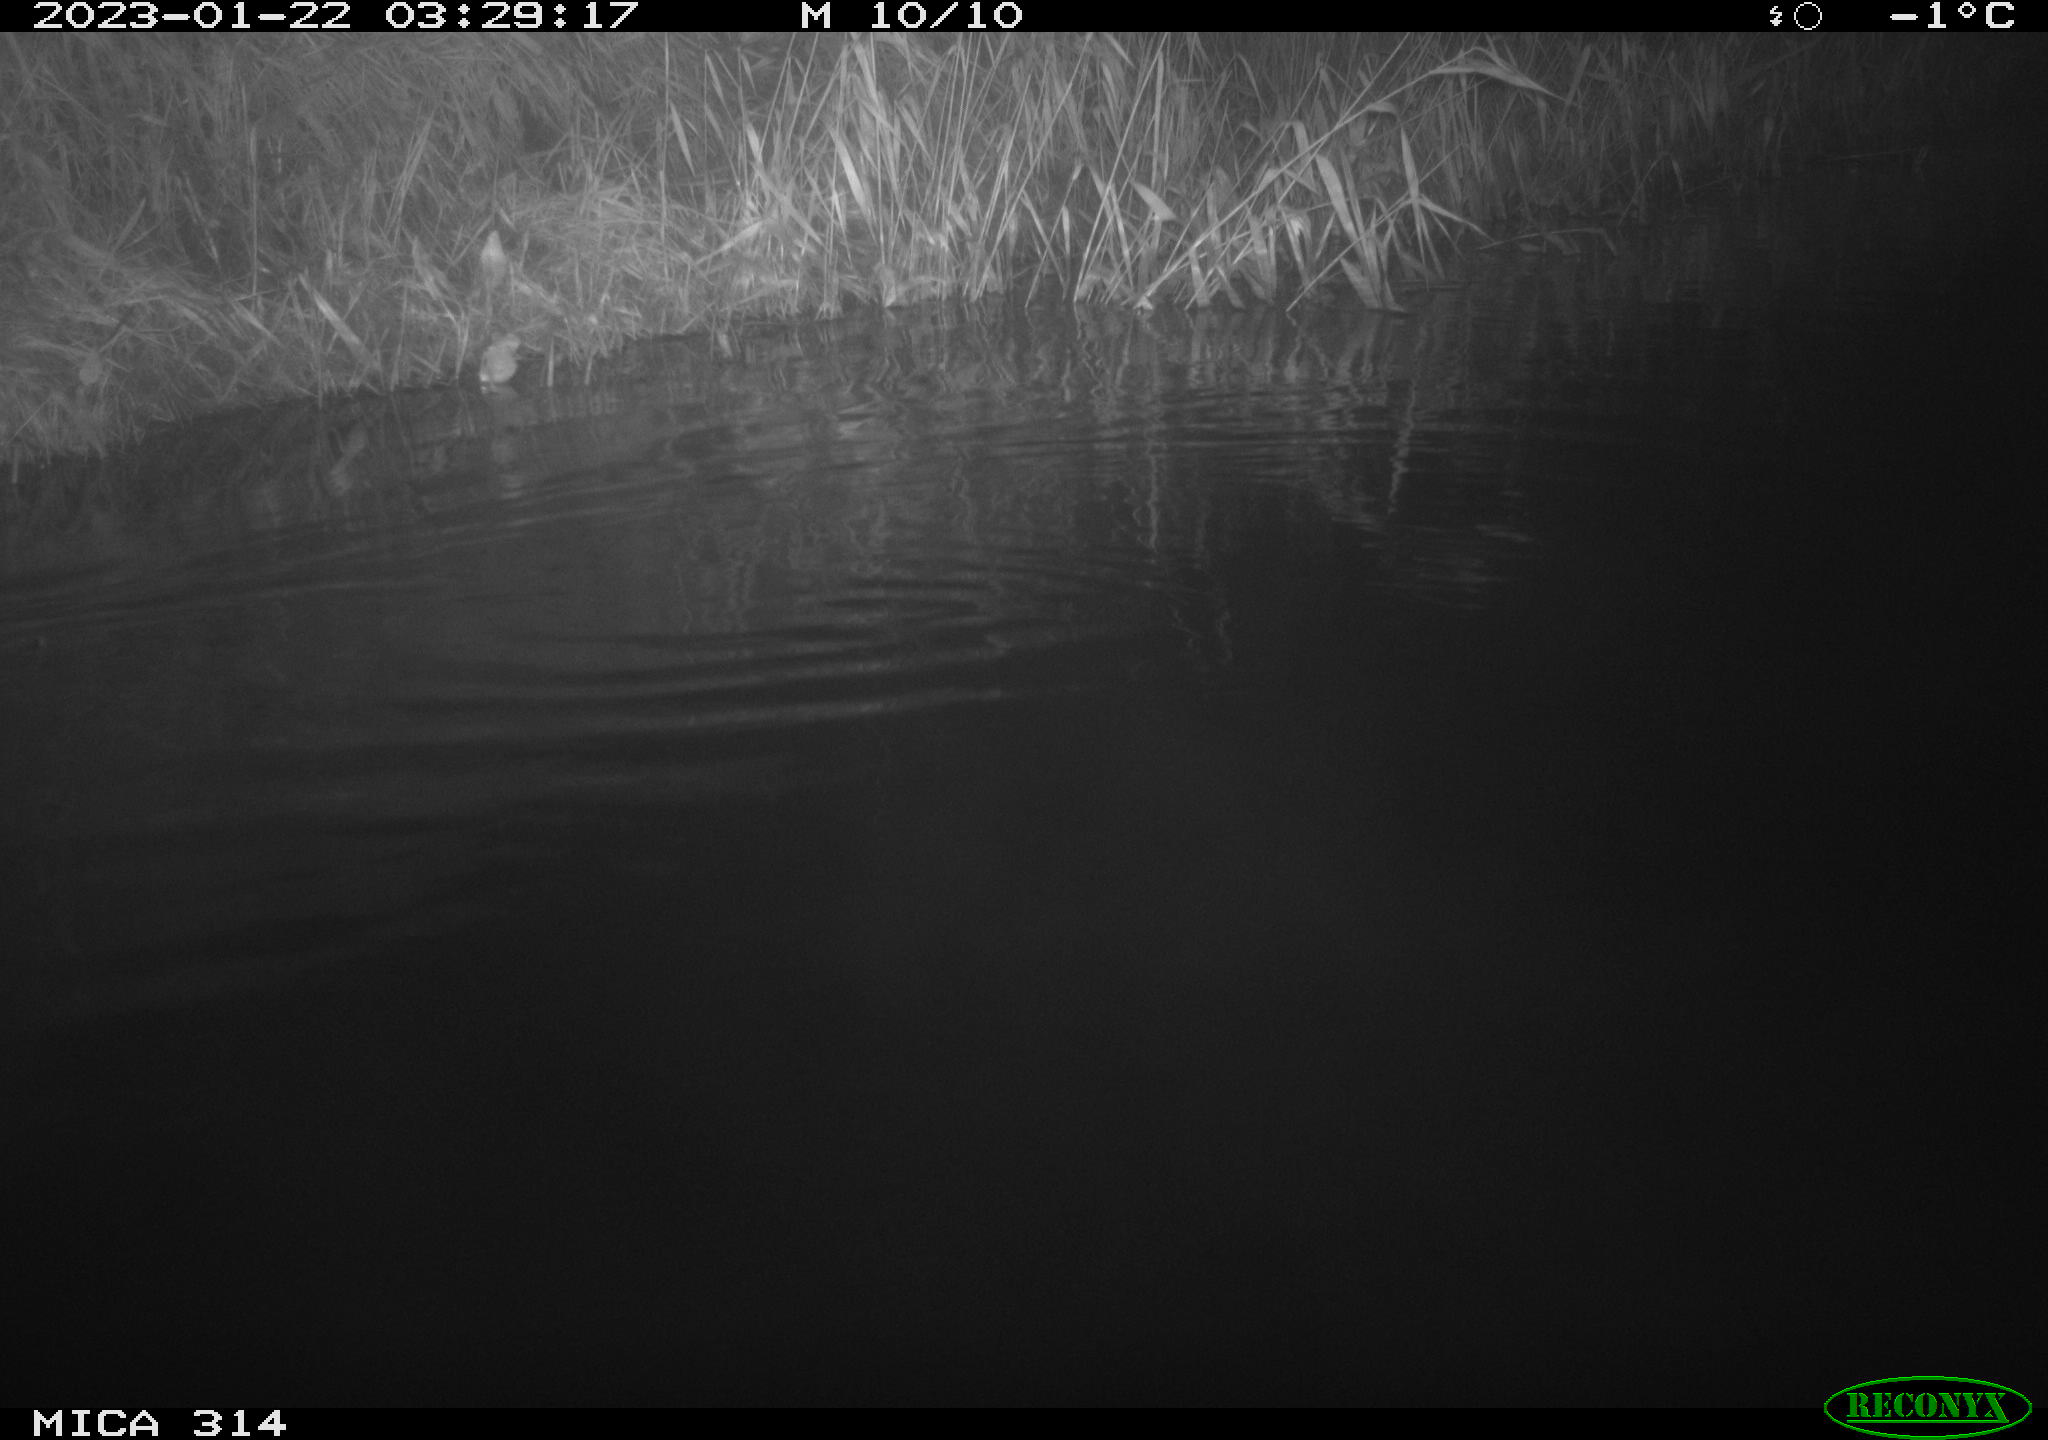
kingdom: Animalia
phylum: Chordata
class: Mammalia
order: Rodentia
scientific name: Rodentia
